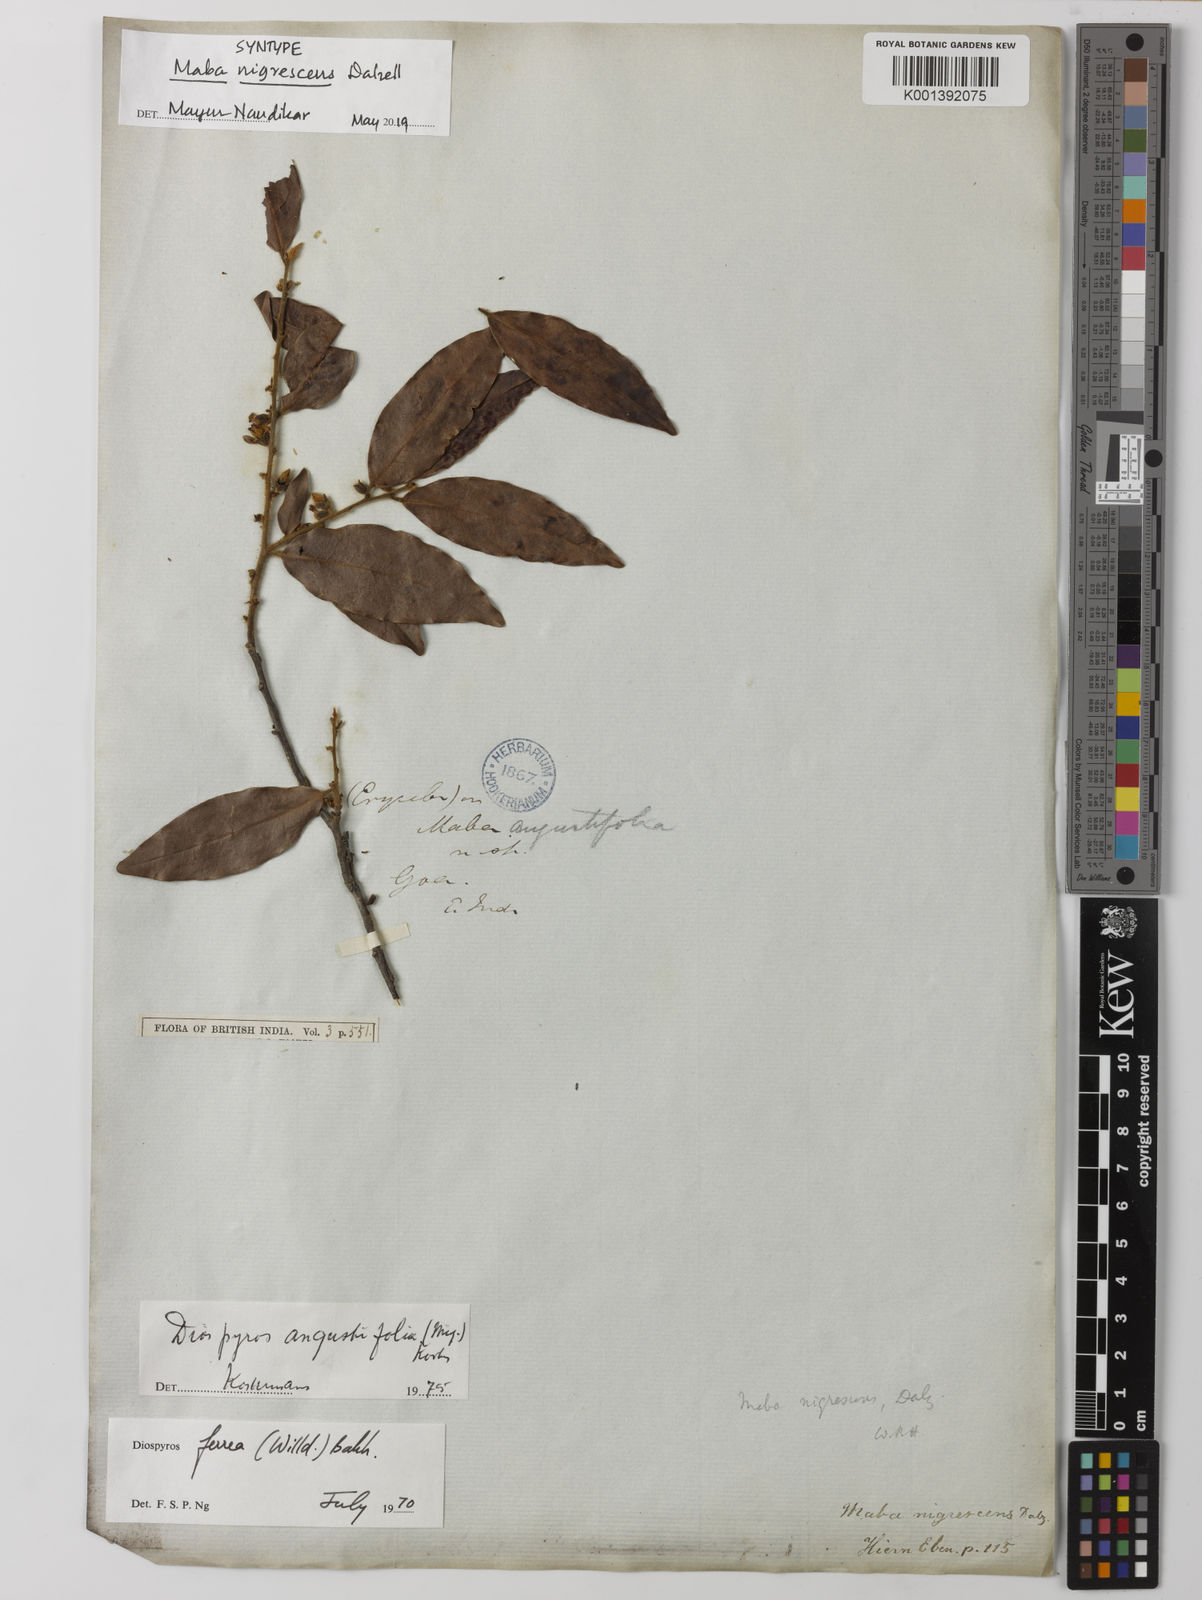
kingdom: Plantae
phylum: Tracheophyta
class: Magnoliopsida
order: Ericales
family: Ebenaceae
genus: Diospyros
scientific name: Diospyros ferrea
